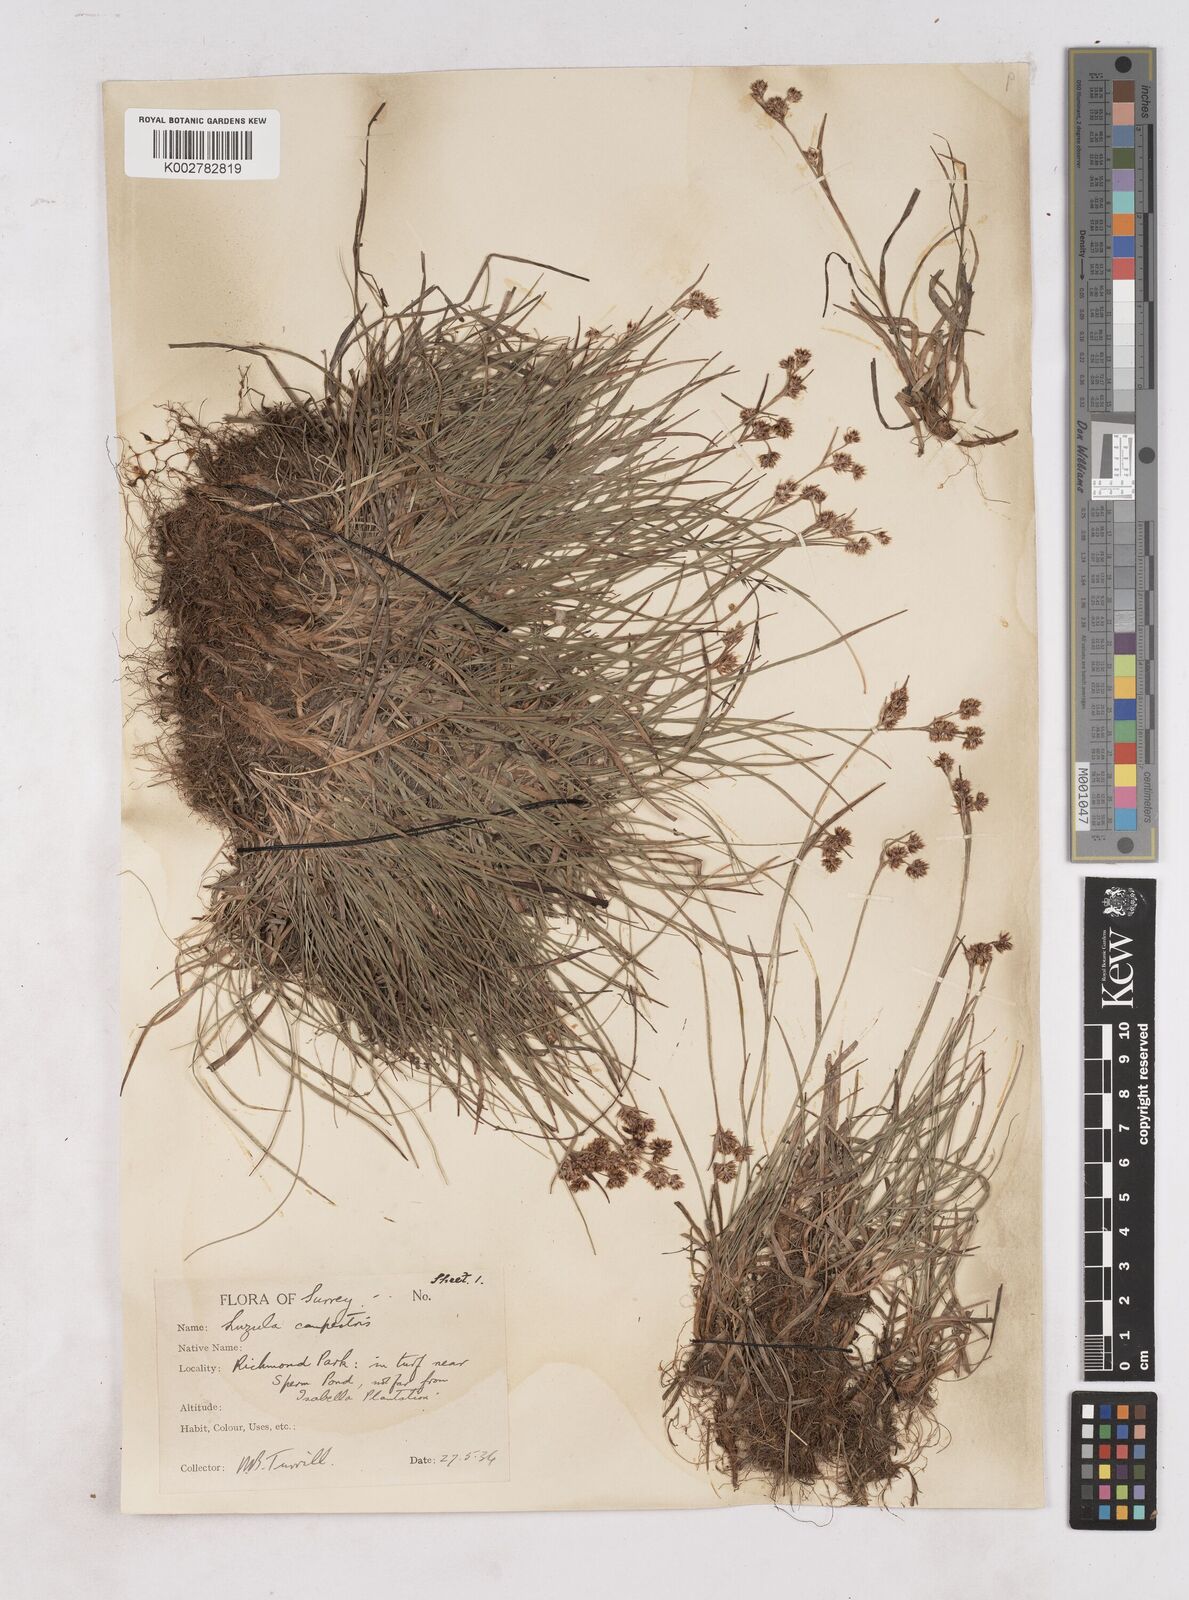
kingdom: Plantae
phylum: Tracheophyta
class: Liliopsida
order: Poales
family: Juncaceae
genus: Luzula
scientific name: Luzula campestris
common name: Field wood-rush
